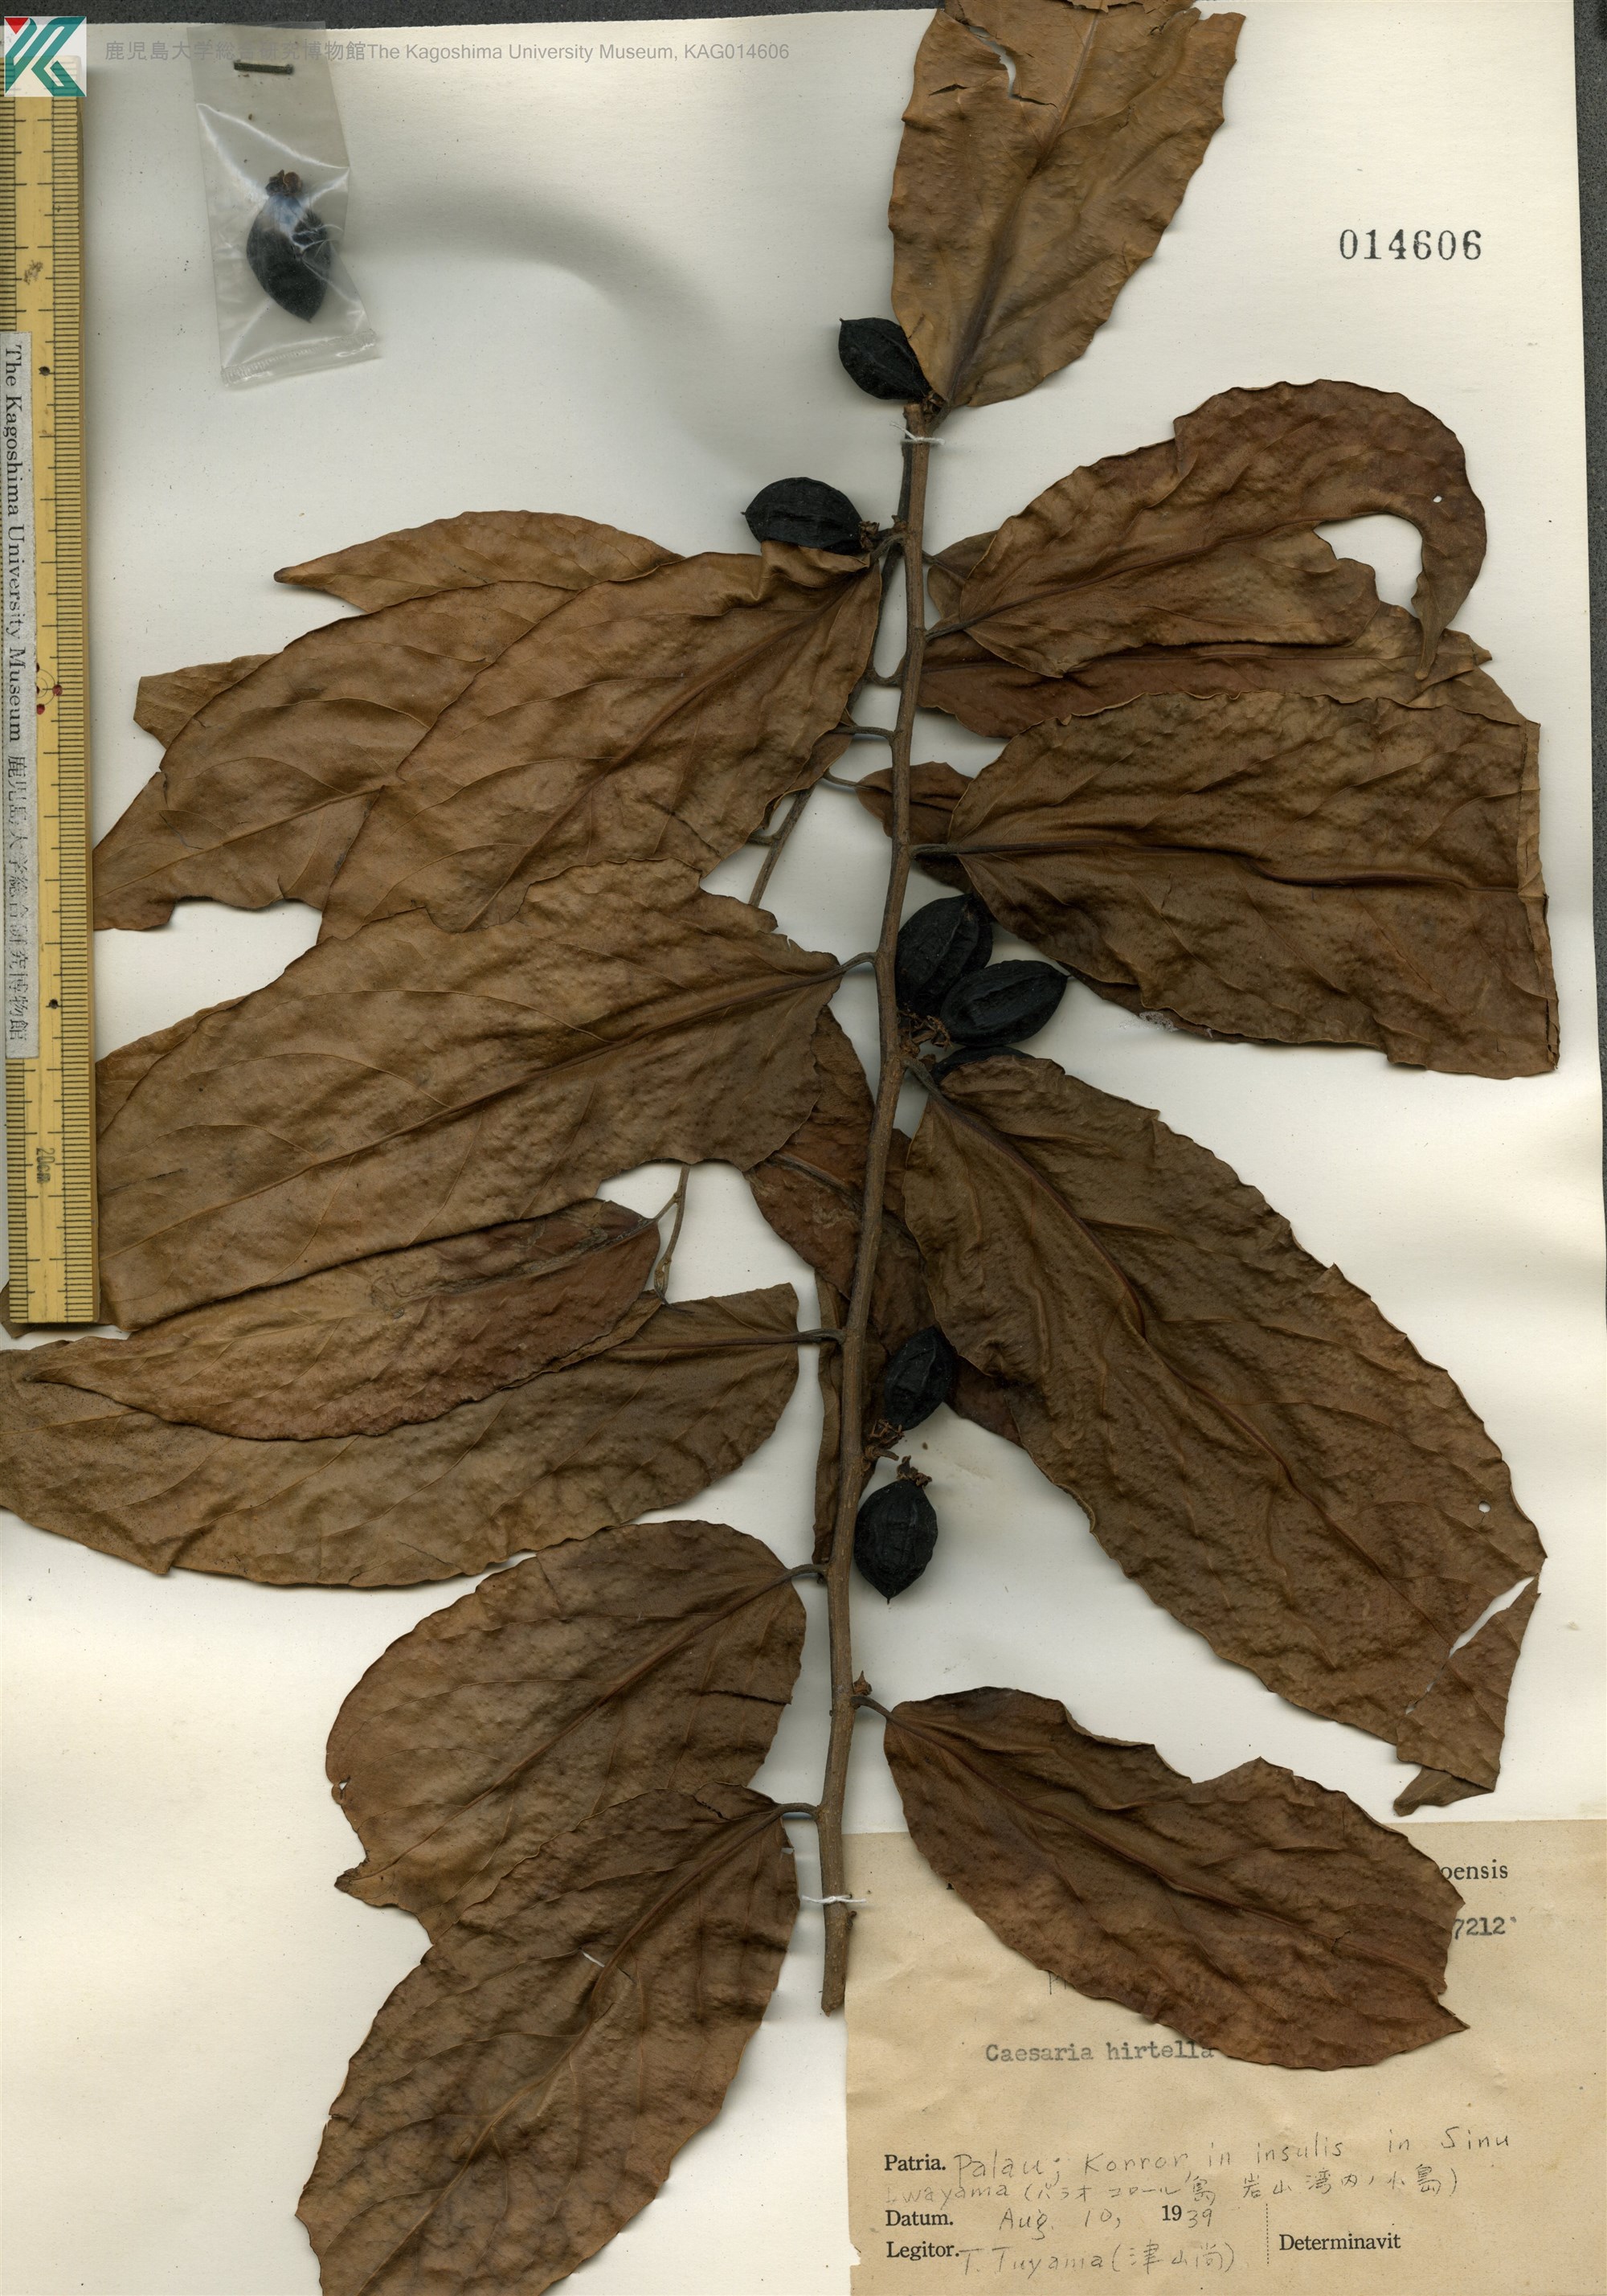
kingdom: Plantae
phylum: Tracheophyta
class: Magnoliopsida
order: Malpighiales
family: Salicaceae
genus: Casearia
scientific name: Casearia hirtella
